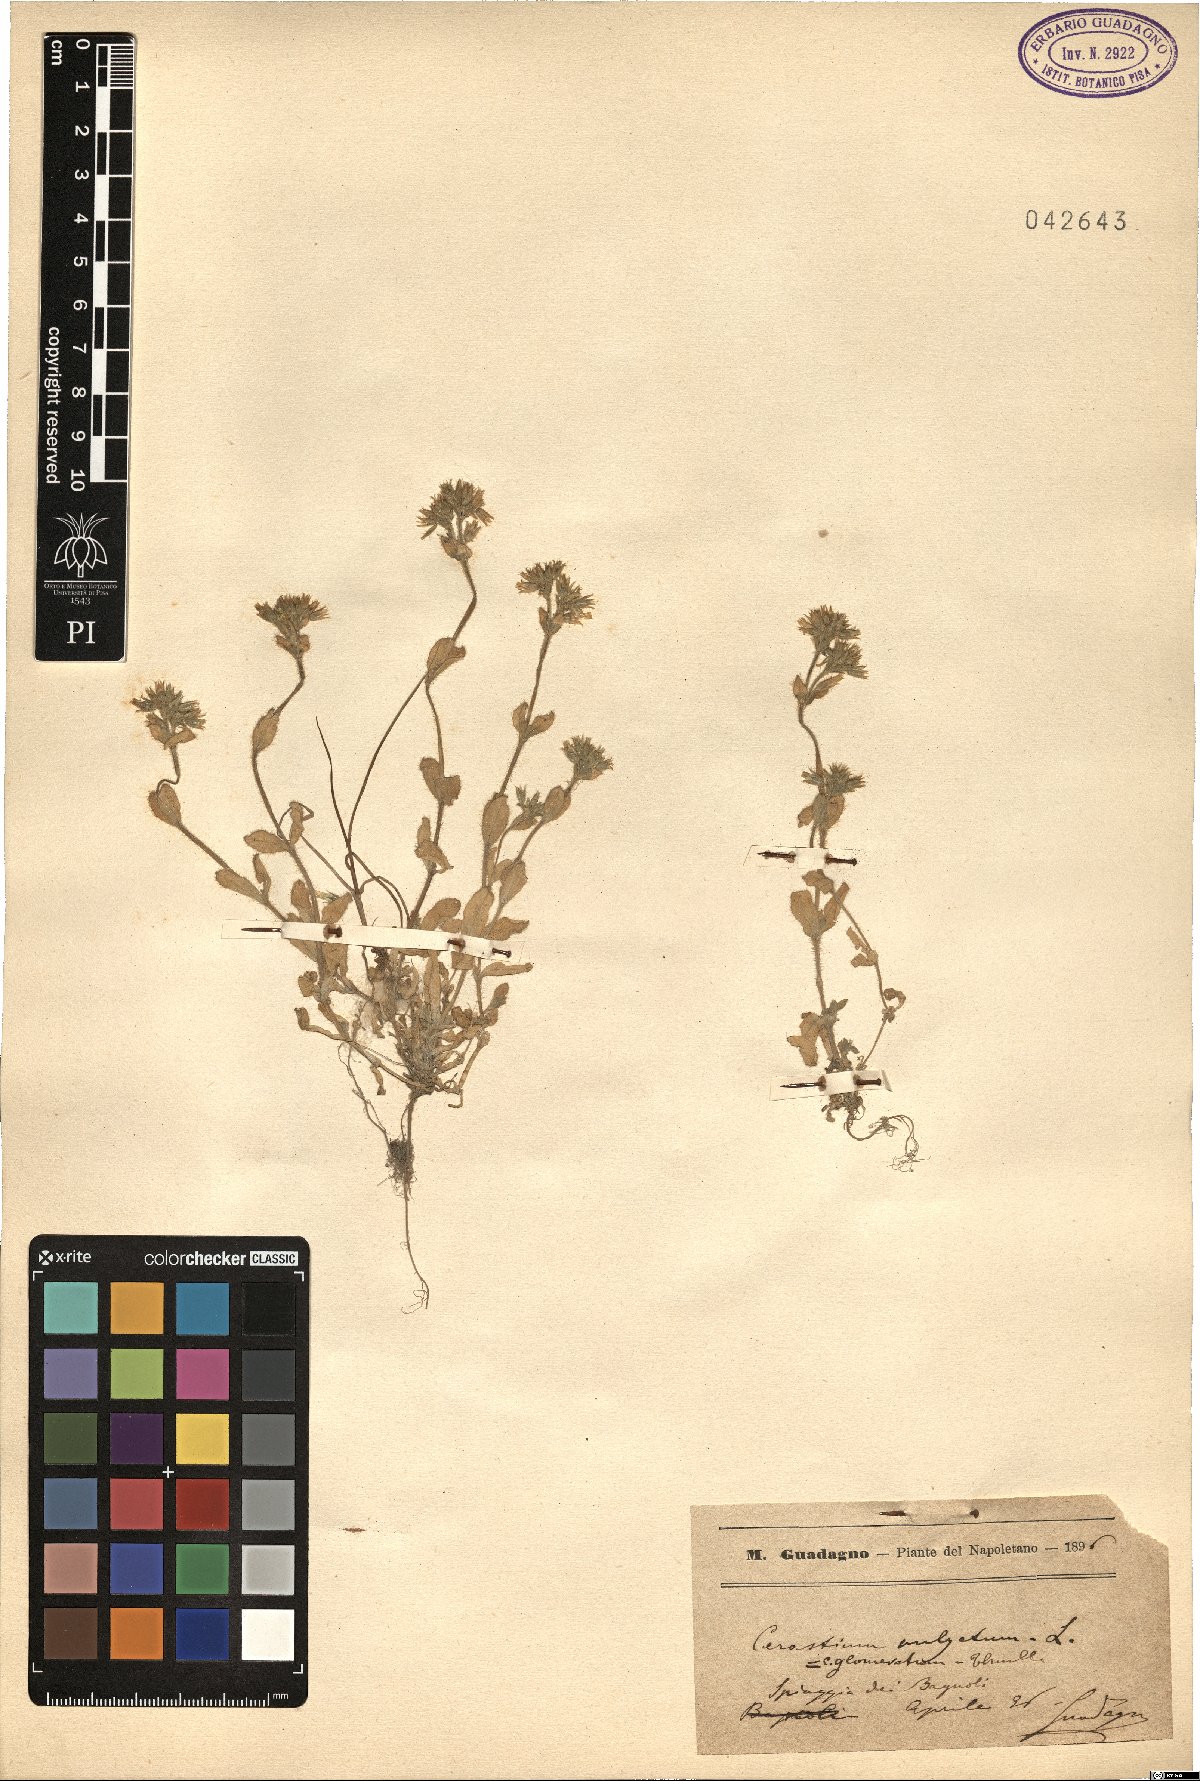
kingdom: Plantae
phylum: Tracheophyta
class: Magnoliopsida
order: Caryophyllales
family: Caryophyllaceae
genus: Cerastium
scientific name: Cerastium glomeratum
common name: Sticky chickweed
